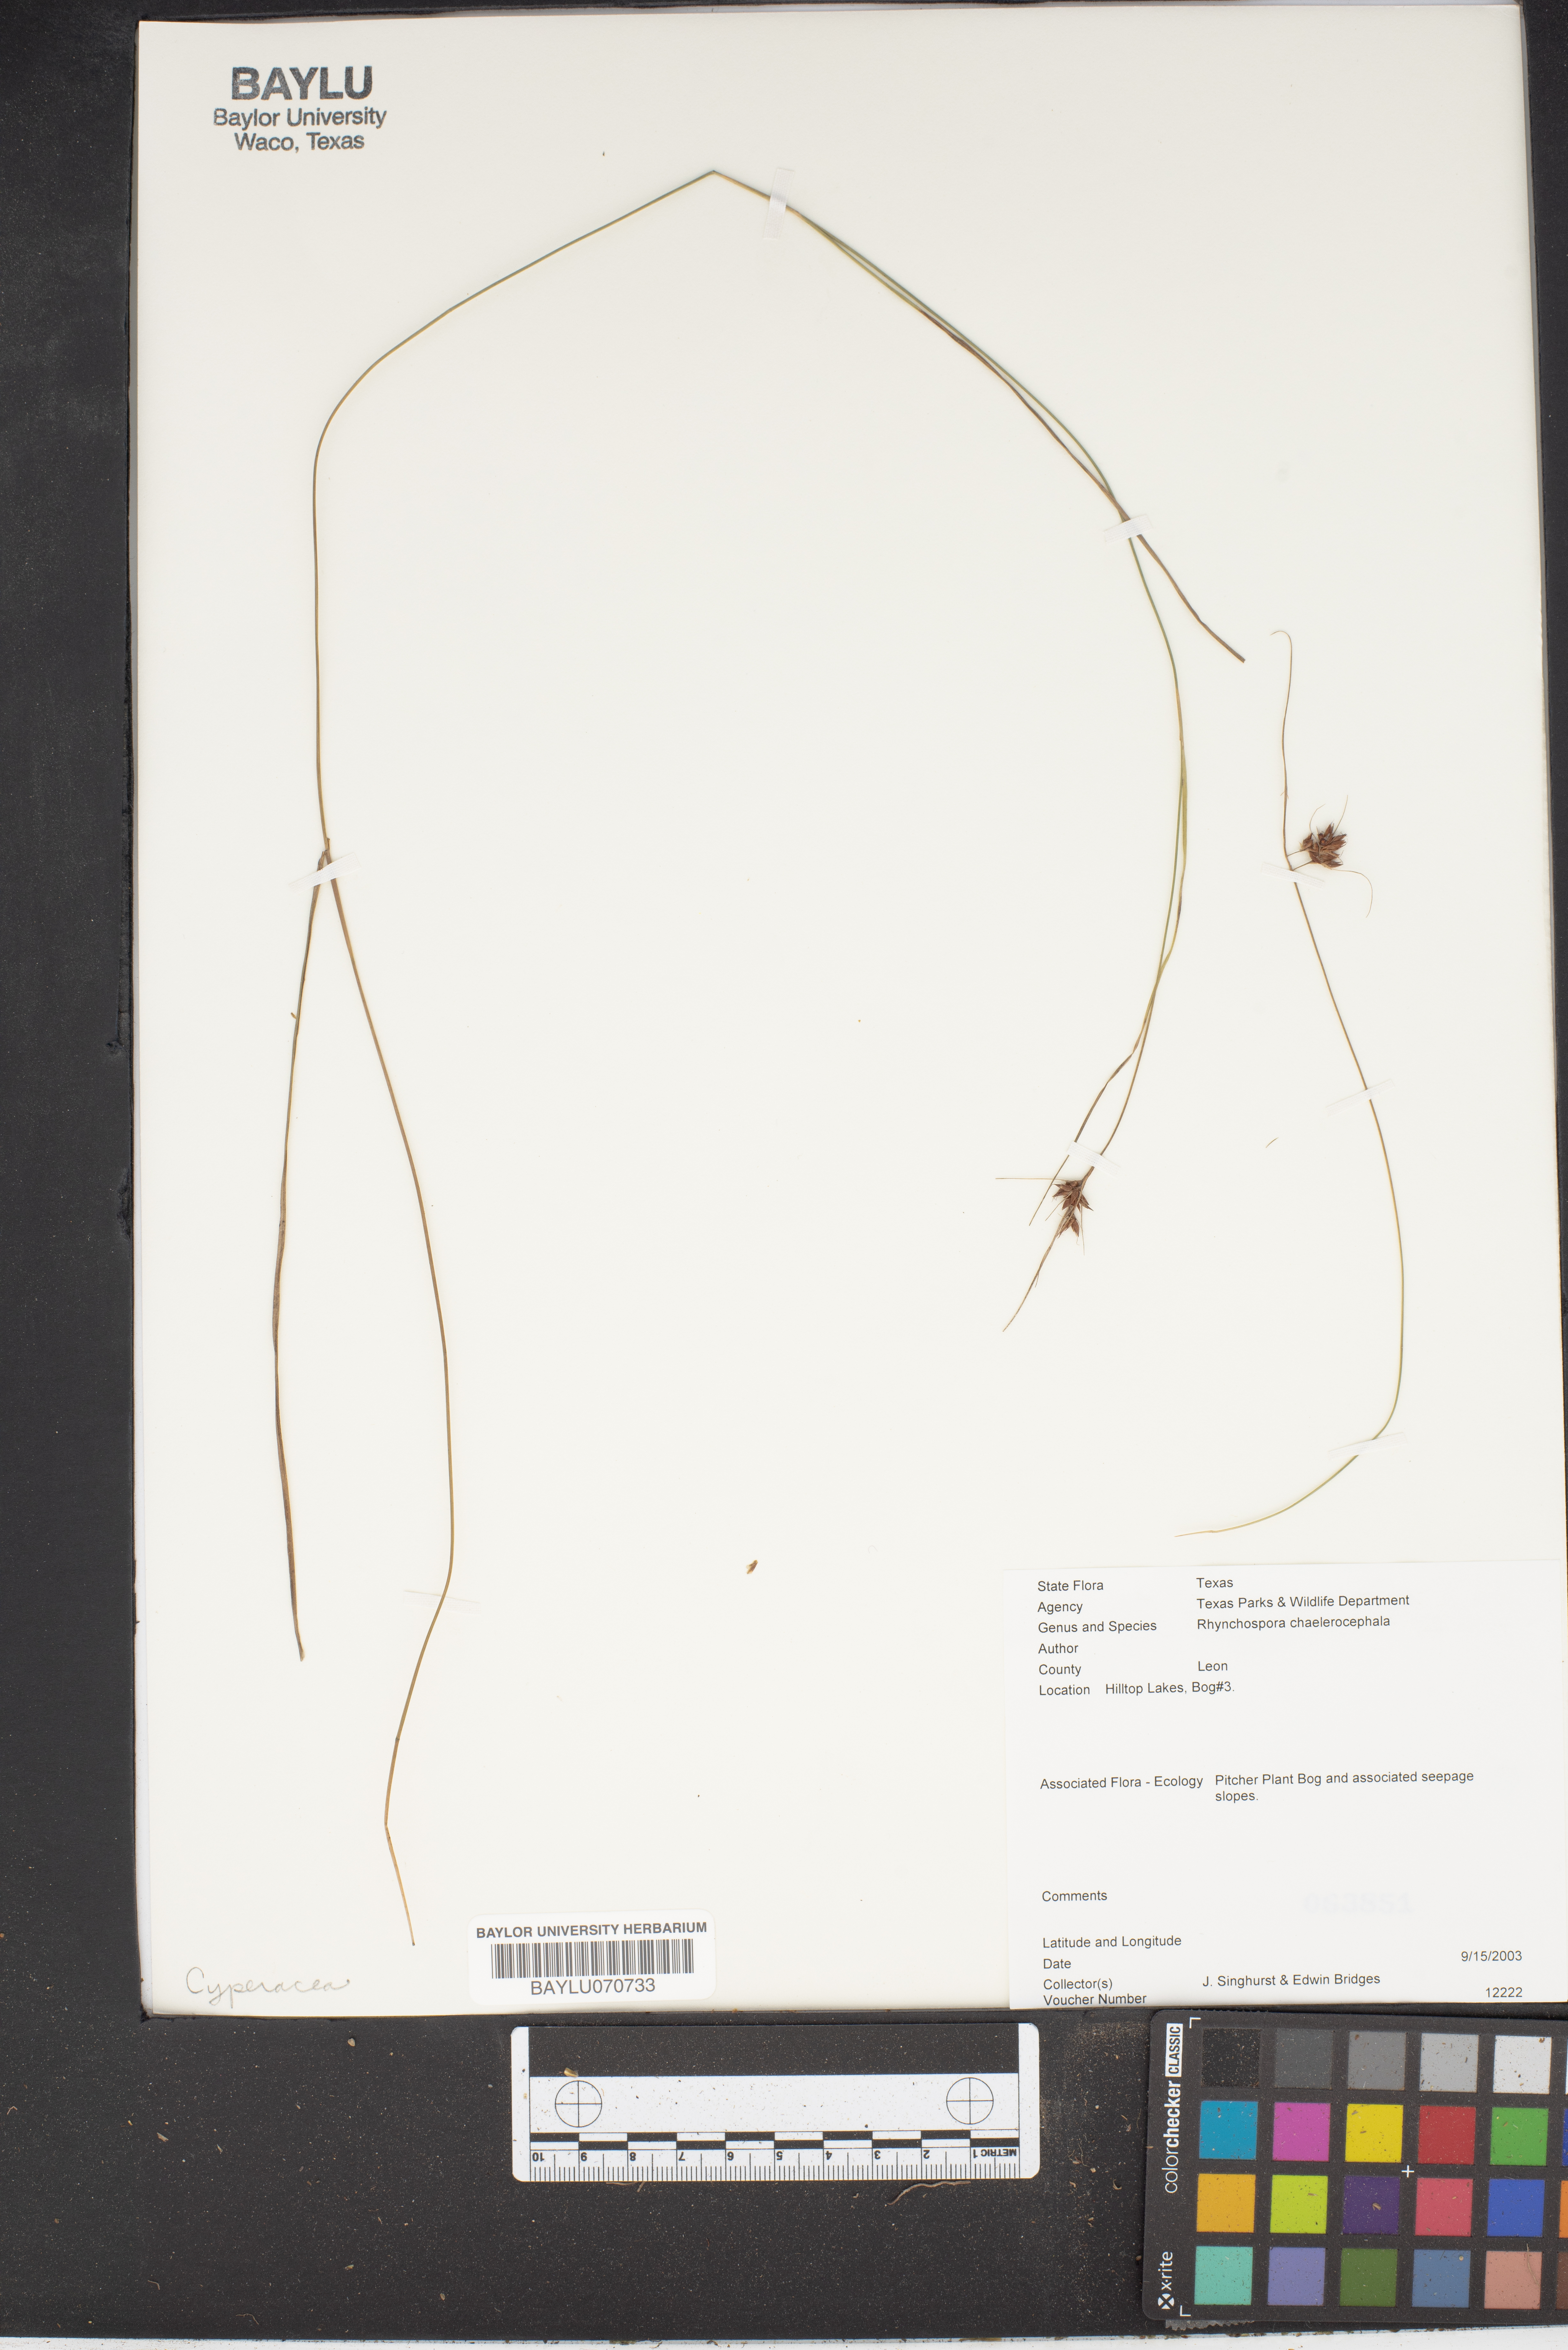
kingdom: Plantae
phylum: Tracheophyta
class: Liliopsida
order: Poales
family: Cyperaceae
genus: Rhynchospora
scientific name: Rhynchospora chalarocephala
